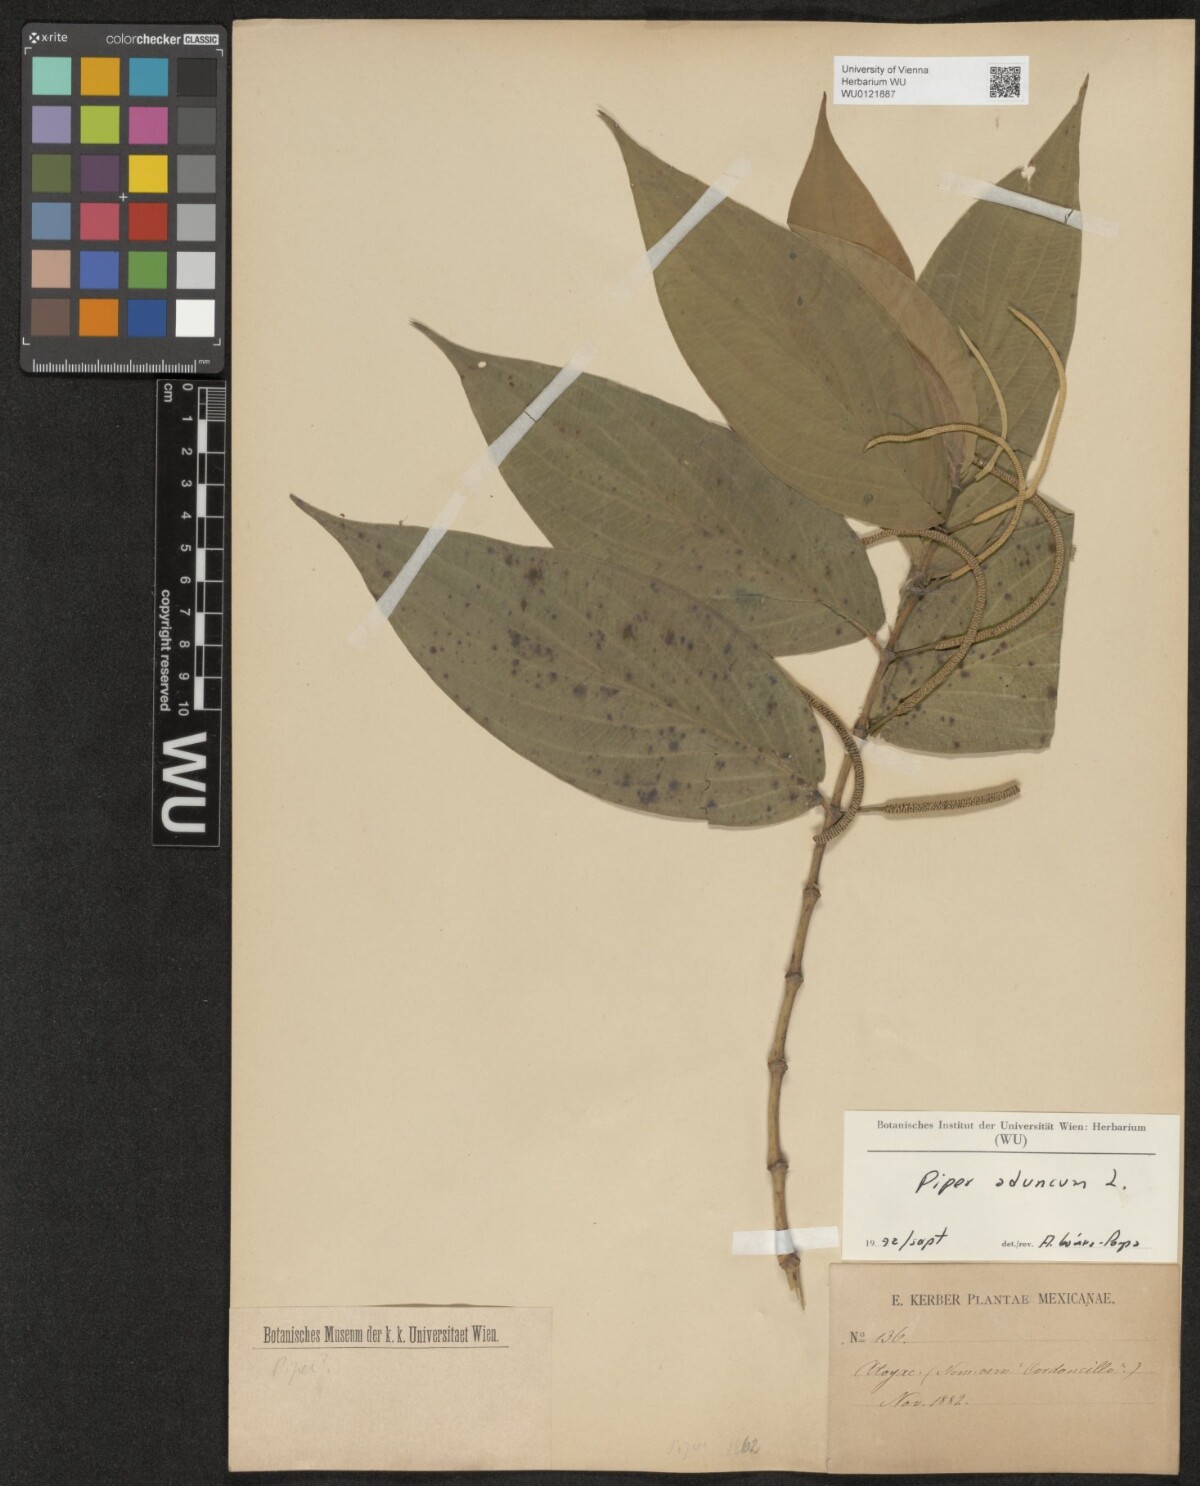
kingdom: Plantae
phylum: Tracheophyta
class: Magnoliopsida
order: Piperales
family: Piperaceae
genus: Piper
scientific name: Piper aduncum
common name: Spiked pepper
